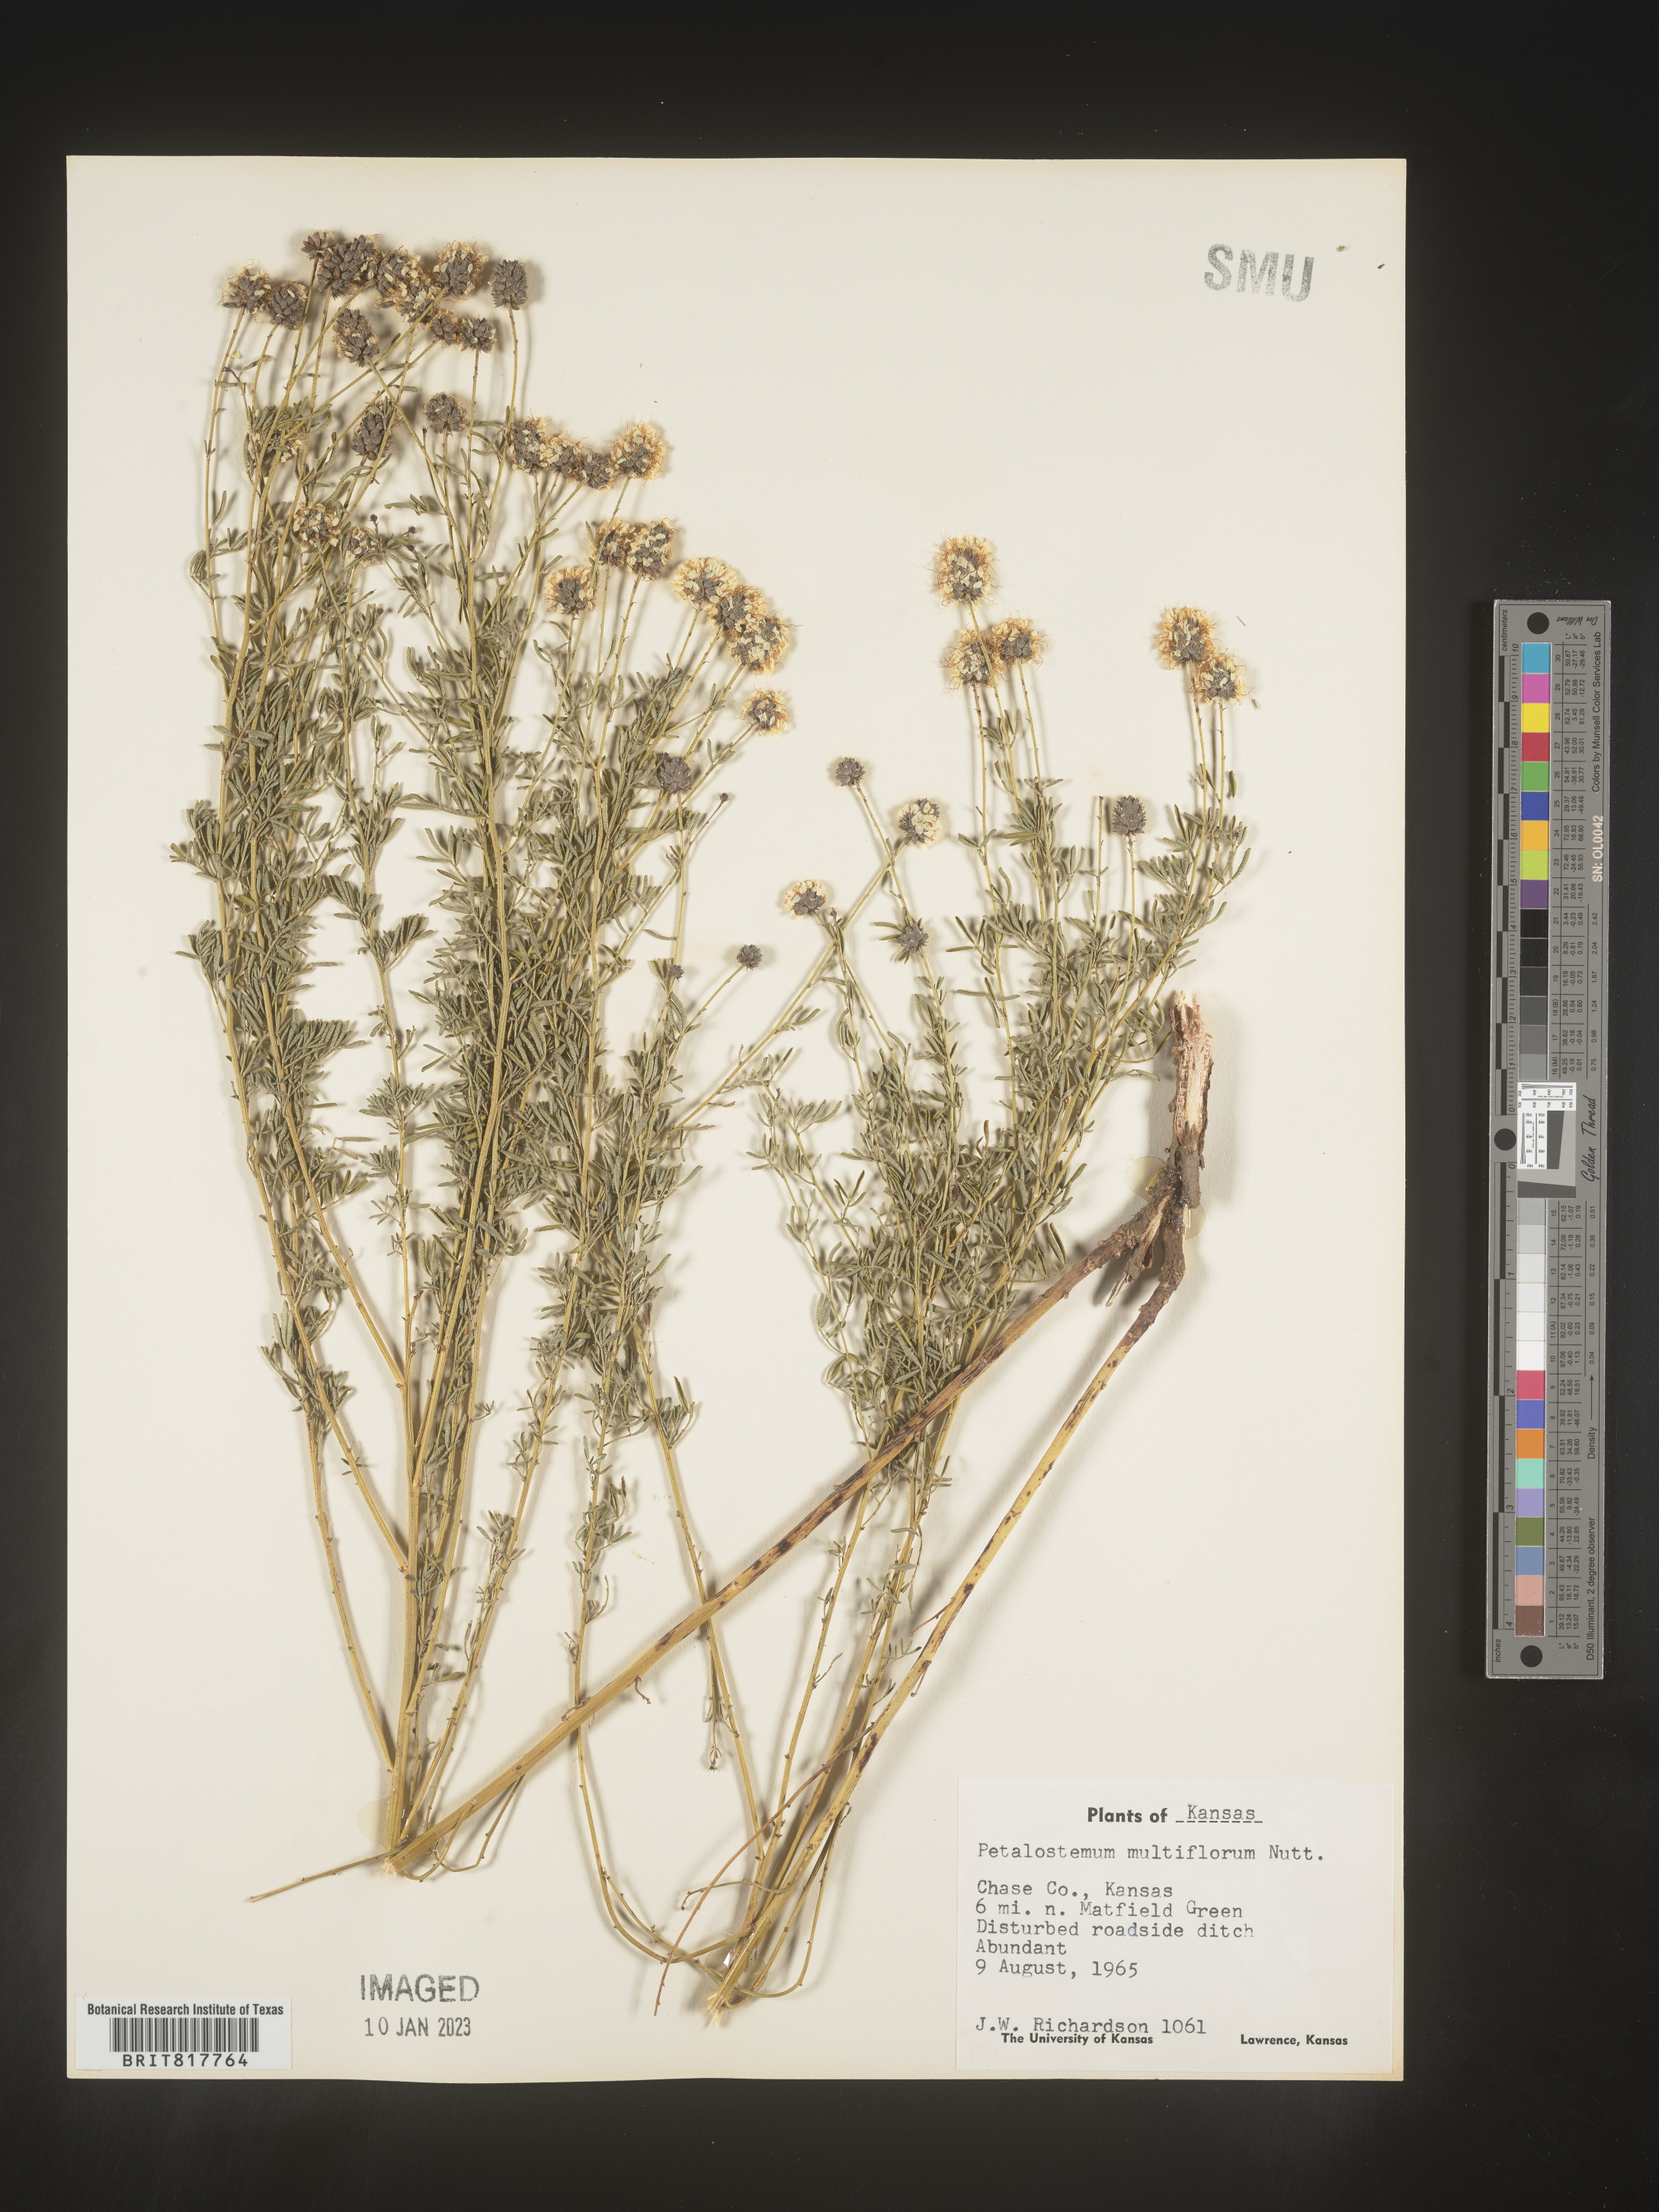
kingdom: Plantae
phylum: Tracheophyta
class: Magnoliopsida
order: Fabales
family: Fabaceae
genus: Dalea
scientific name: Dalea multiflora
